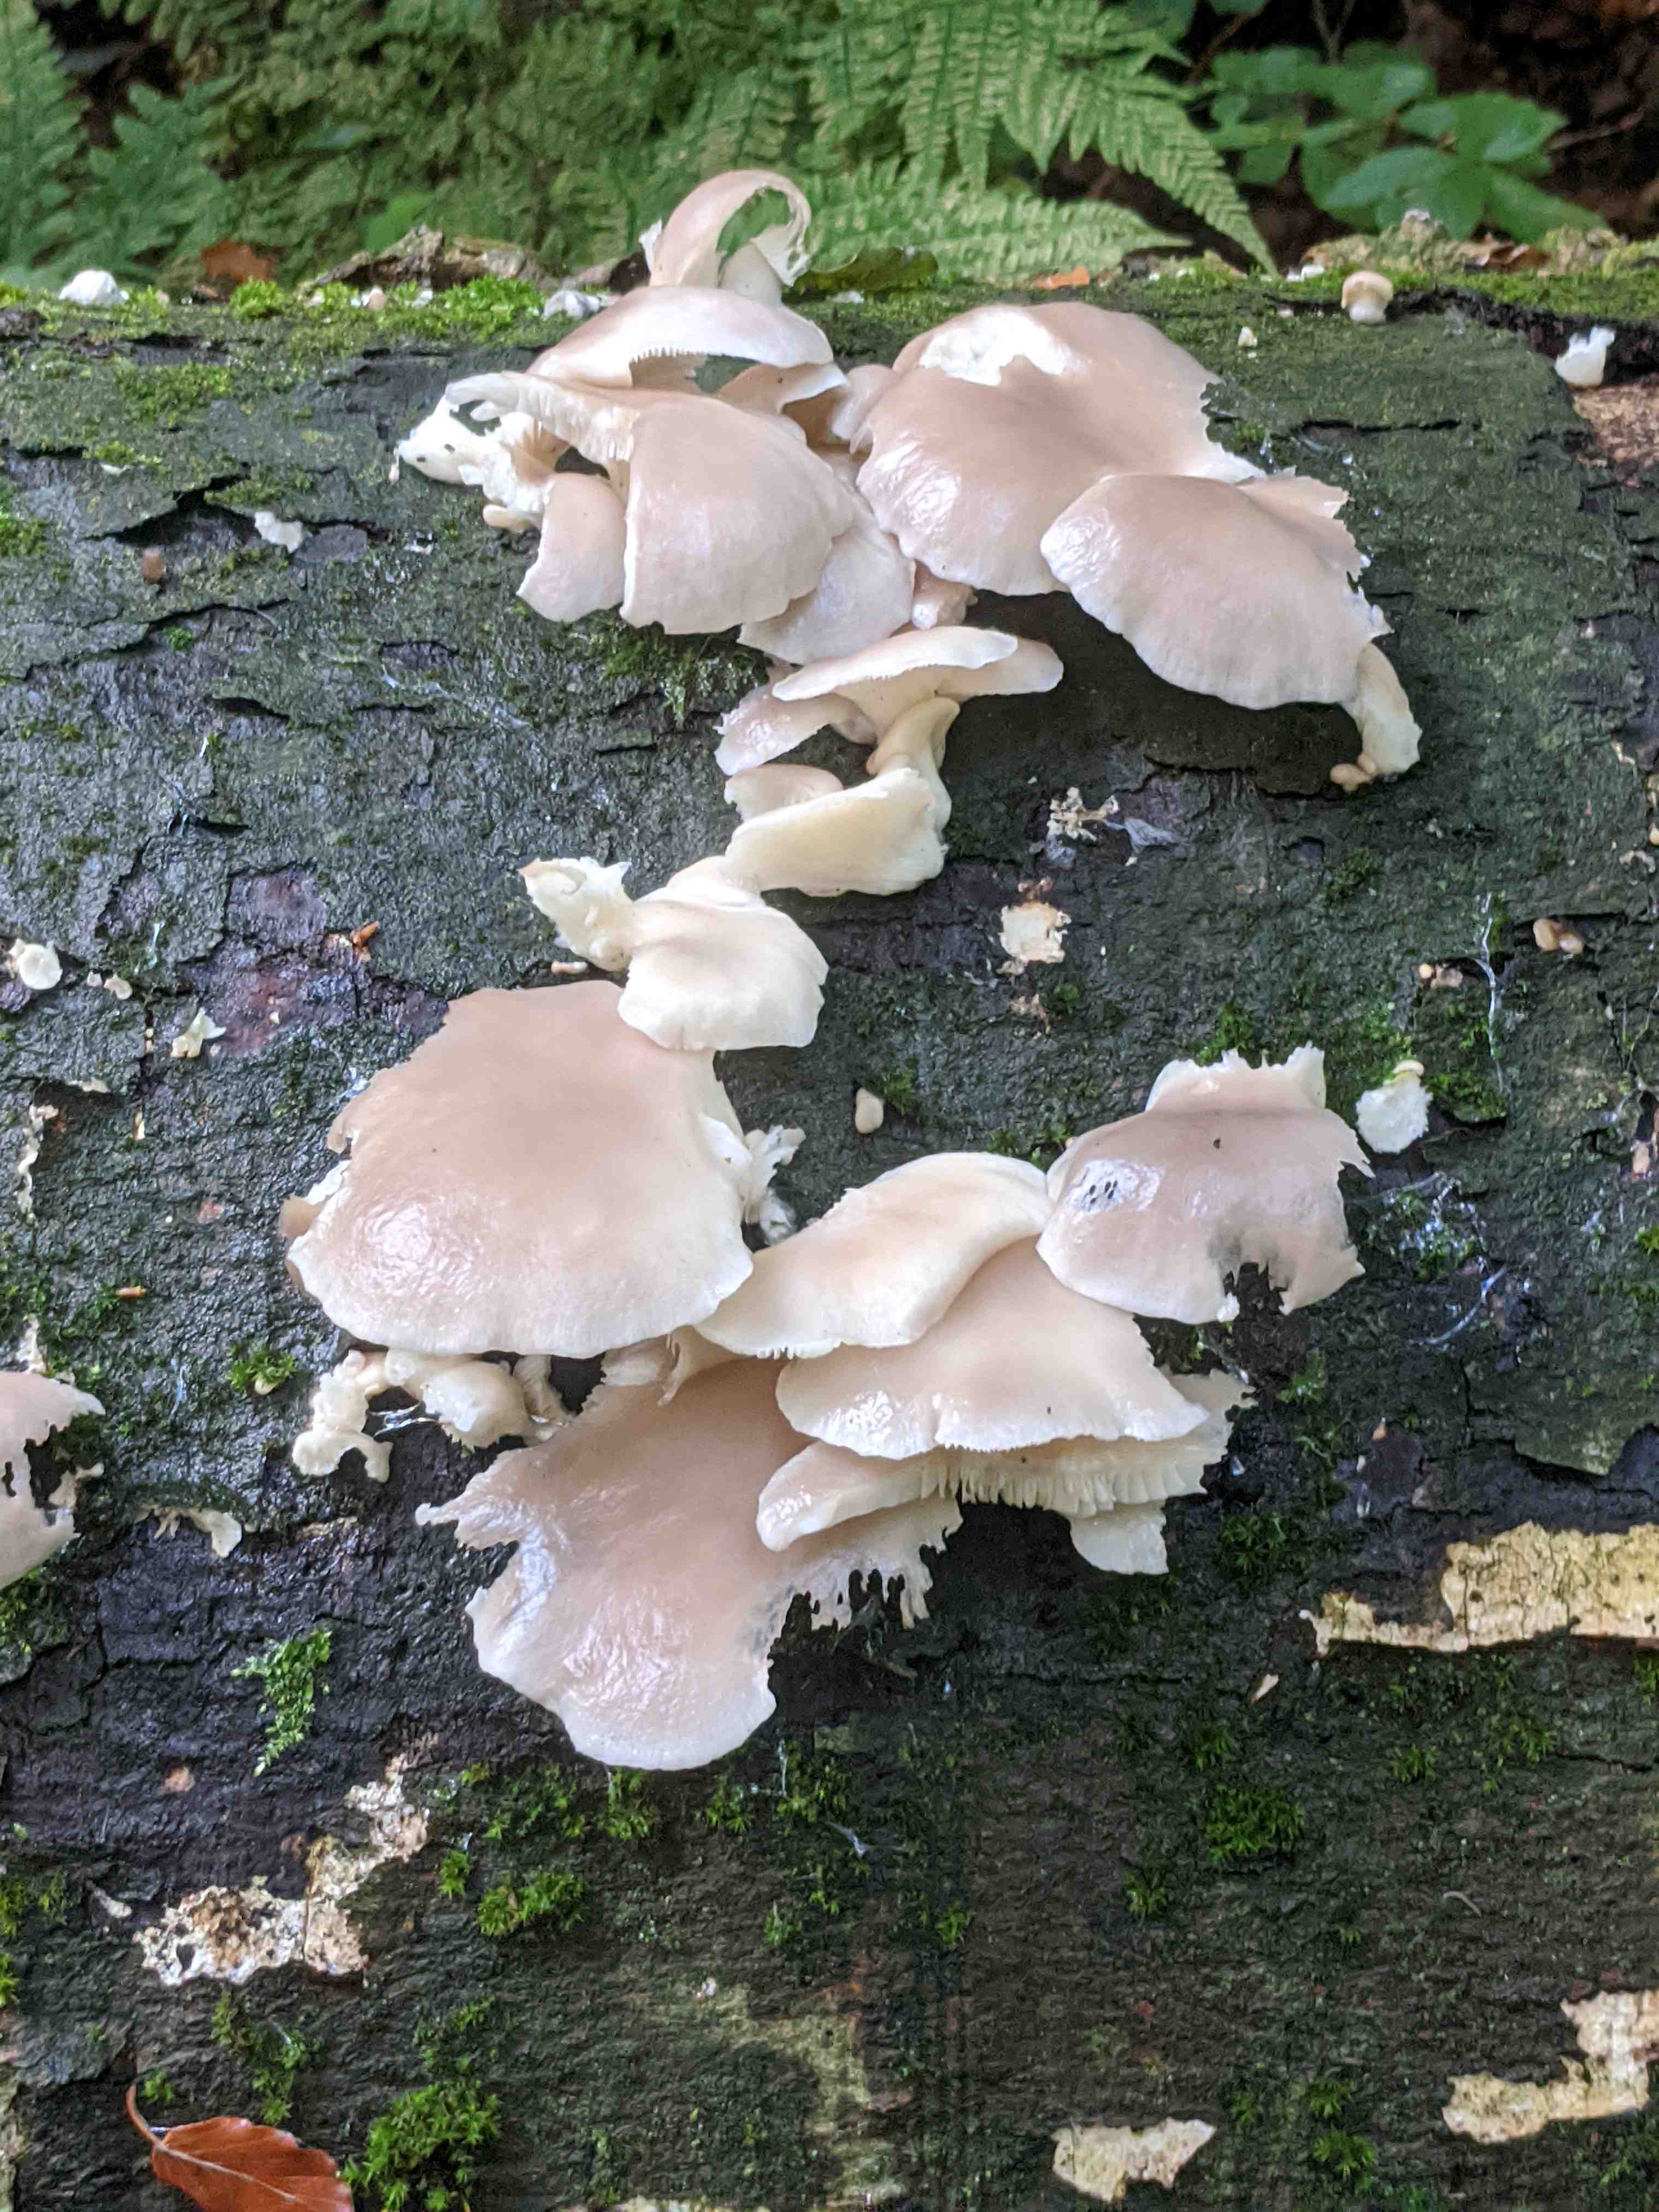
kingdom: Fungi
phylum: Basidiomycota
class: Agaricomycetes
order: Agaricales
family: Pleurotaceae
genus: Pleurotus
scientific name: Pleurotus pulmonarius
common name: sommer-østershat
